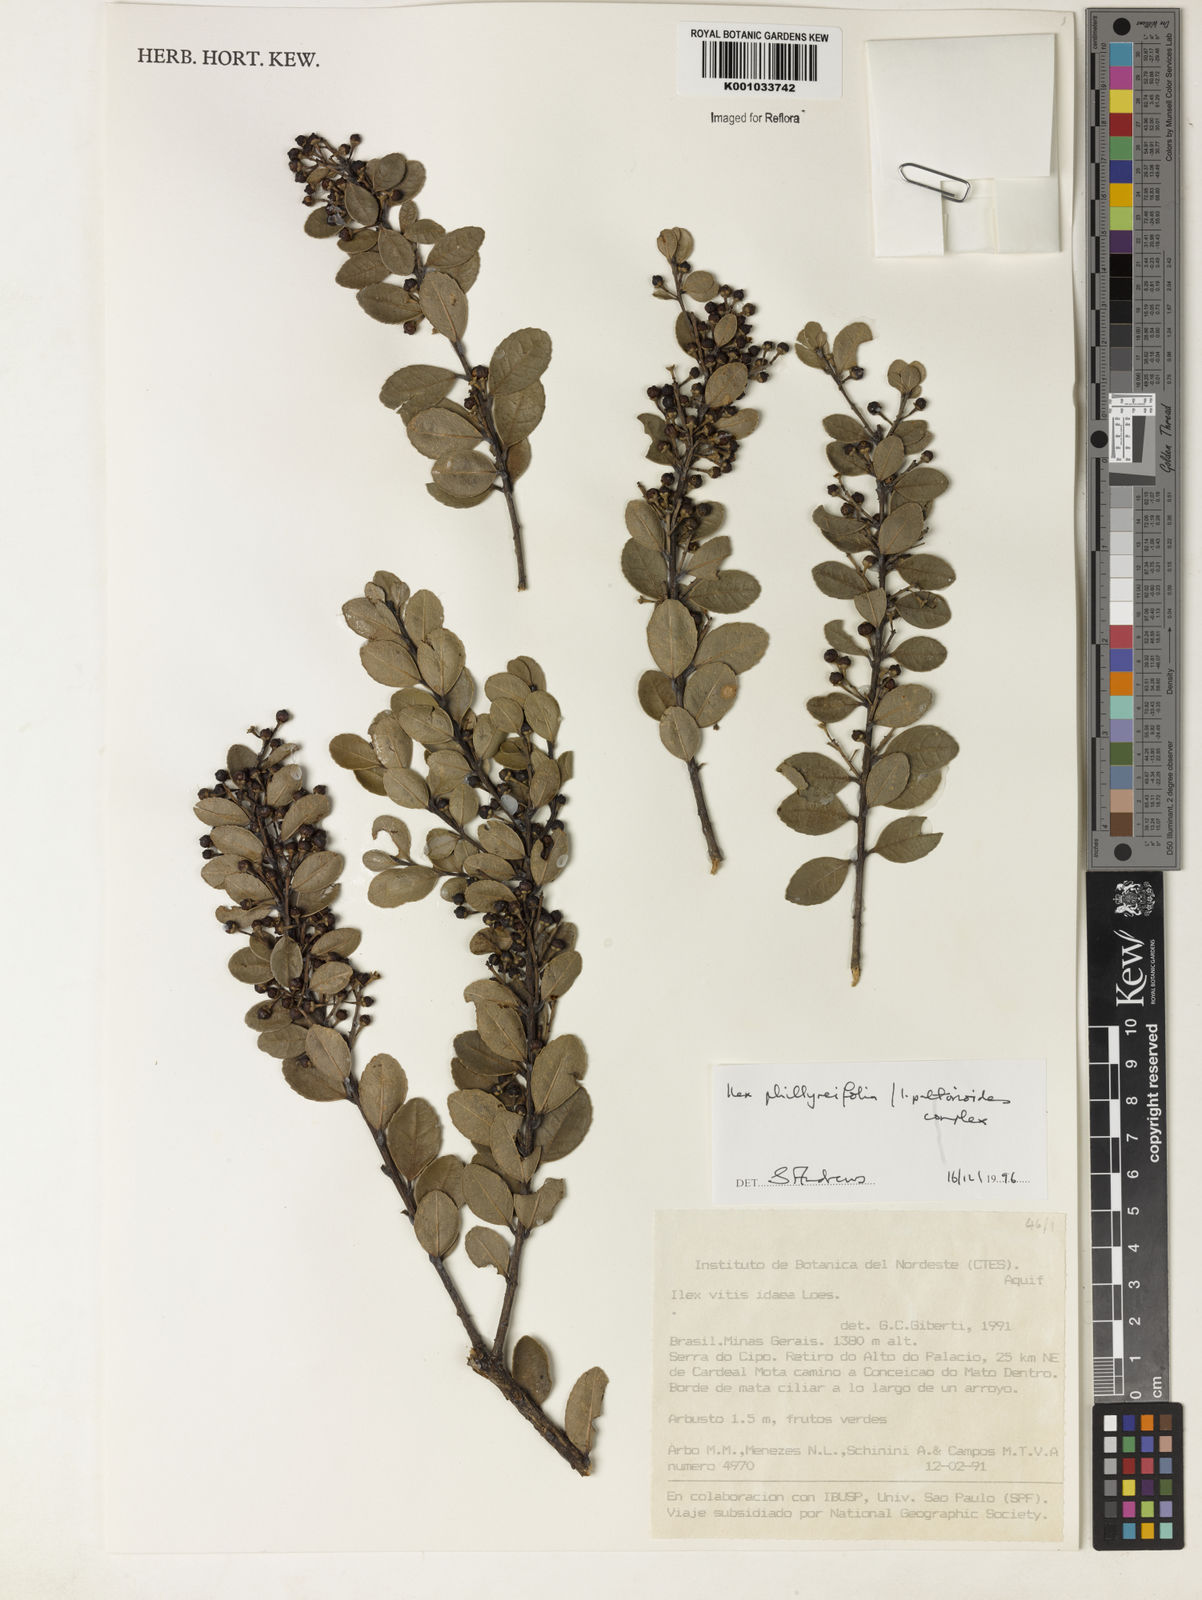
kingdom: Plantae
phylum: Tracheophyta
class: Magnoliopsida
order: Aquifoliales
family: Aquifoliaceae
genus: Ilex
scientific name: Ilex
